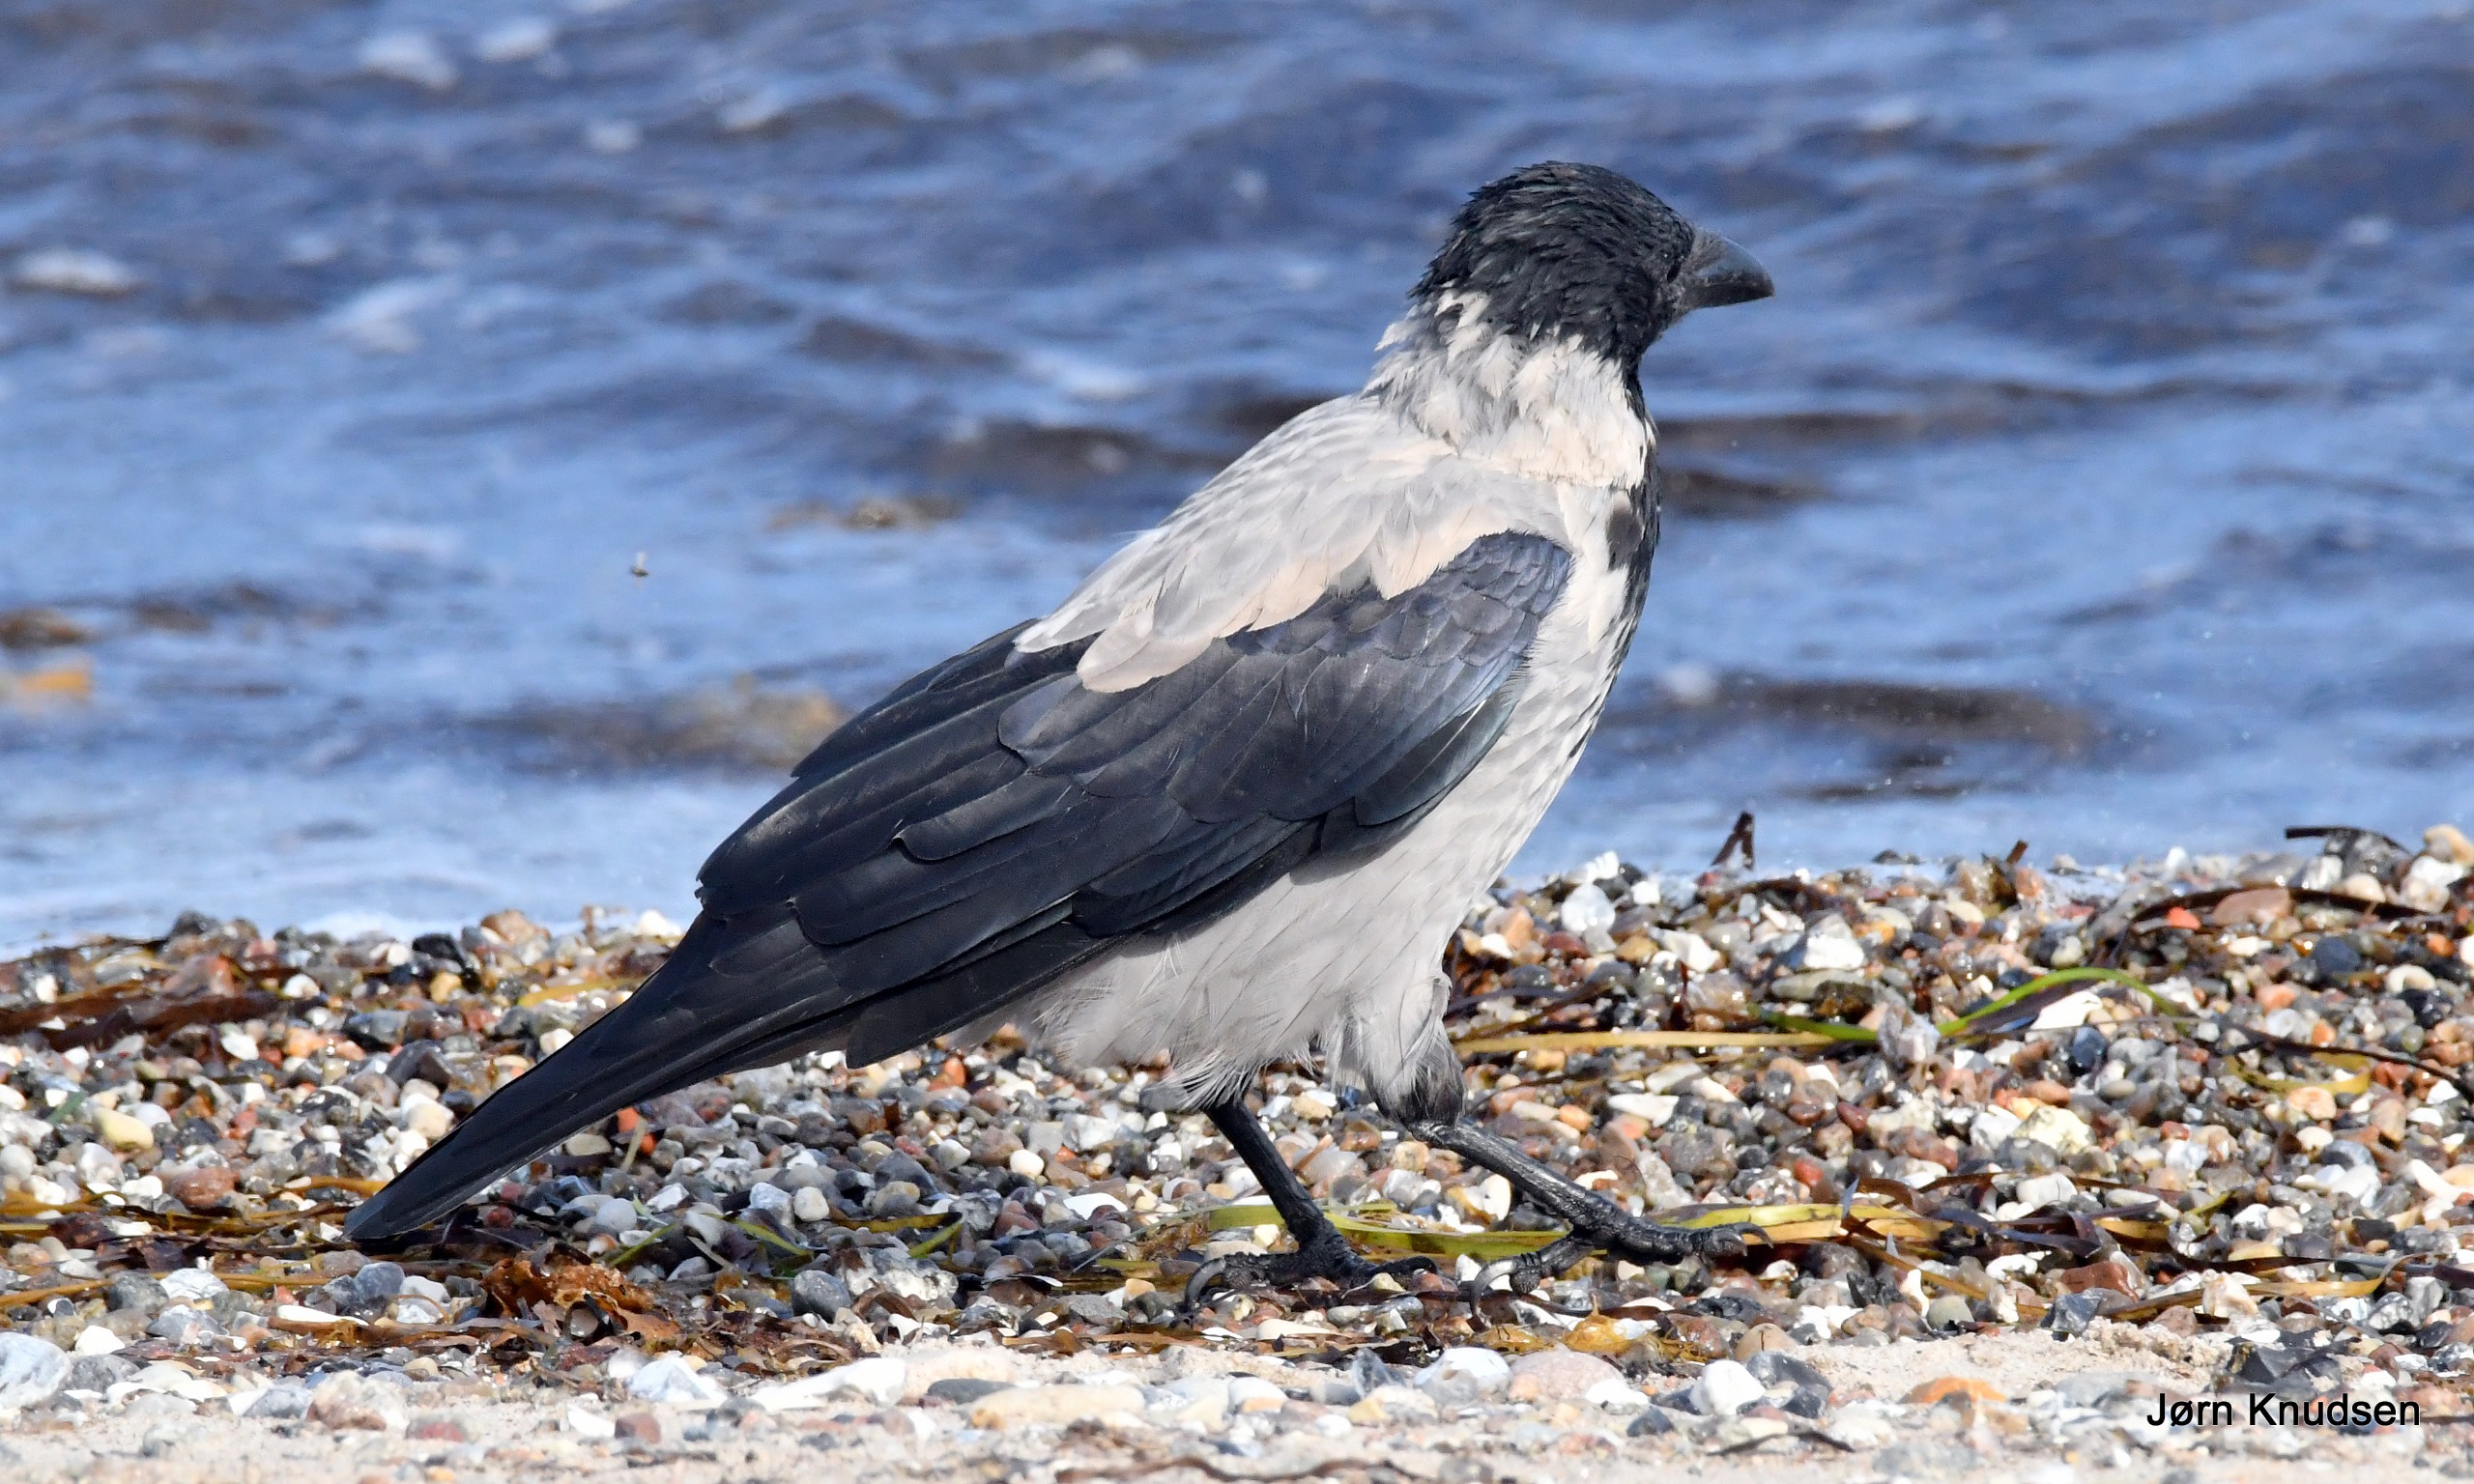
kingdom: Animalia
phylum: Chordata
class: Aves
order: Passeriformes
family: Corvidae
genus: Corvus
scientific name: Corvus cornix
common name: Gråkrage
